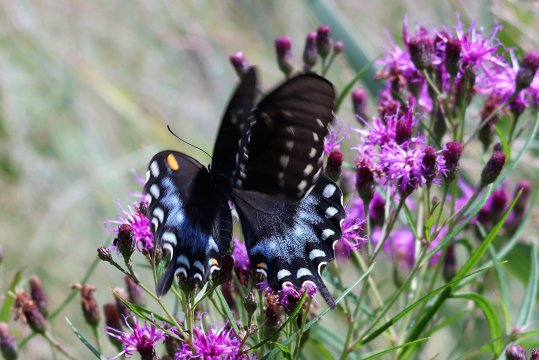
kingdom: Animalia
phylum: Arthropoda
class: Insecta
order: Lepidoptera
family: Papilionidae
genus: Pterourus
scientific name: Pterourus troilus
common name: Spicebush Swallowtail
